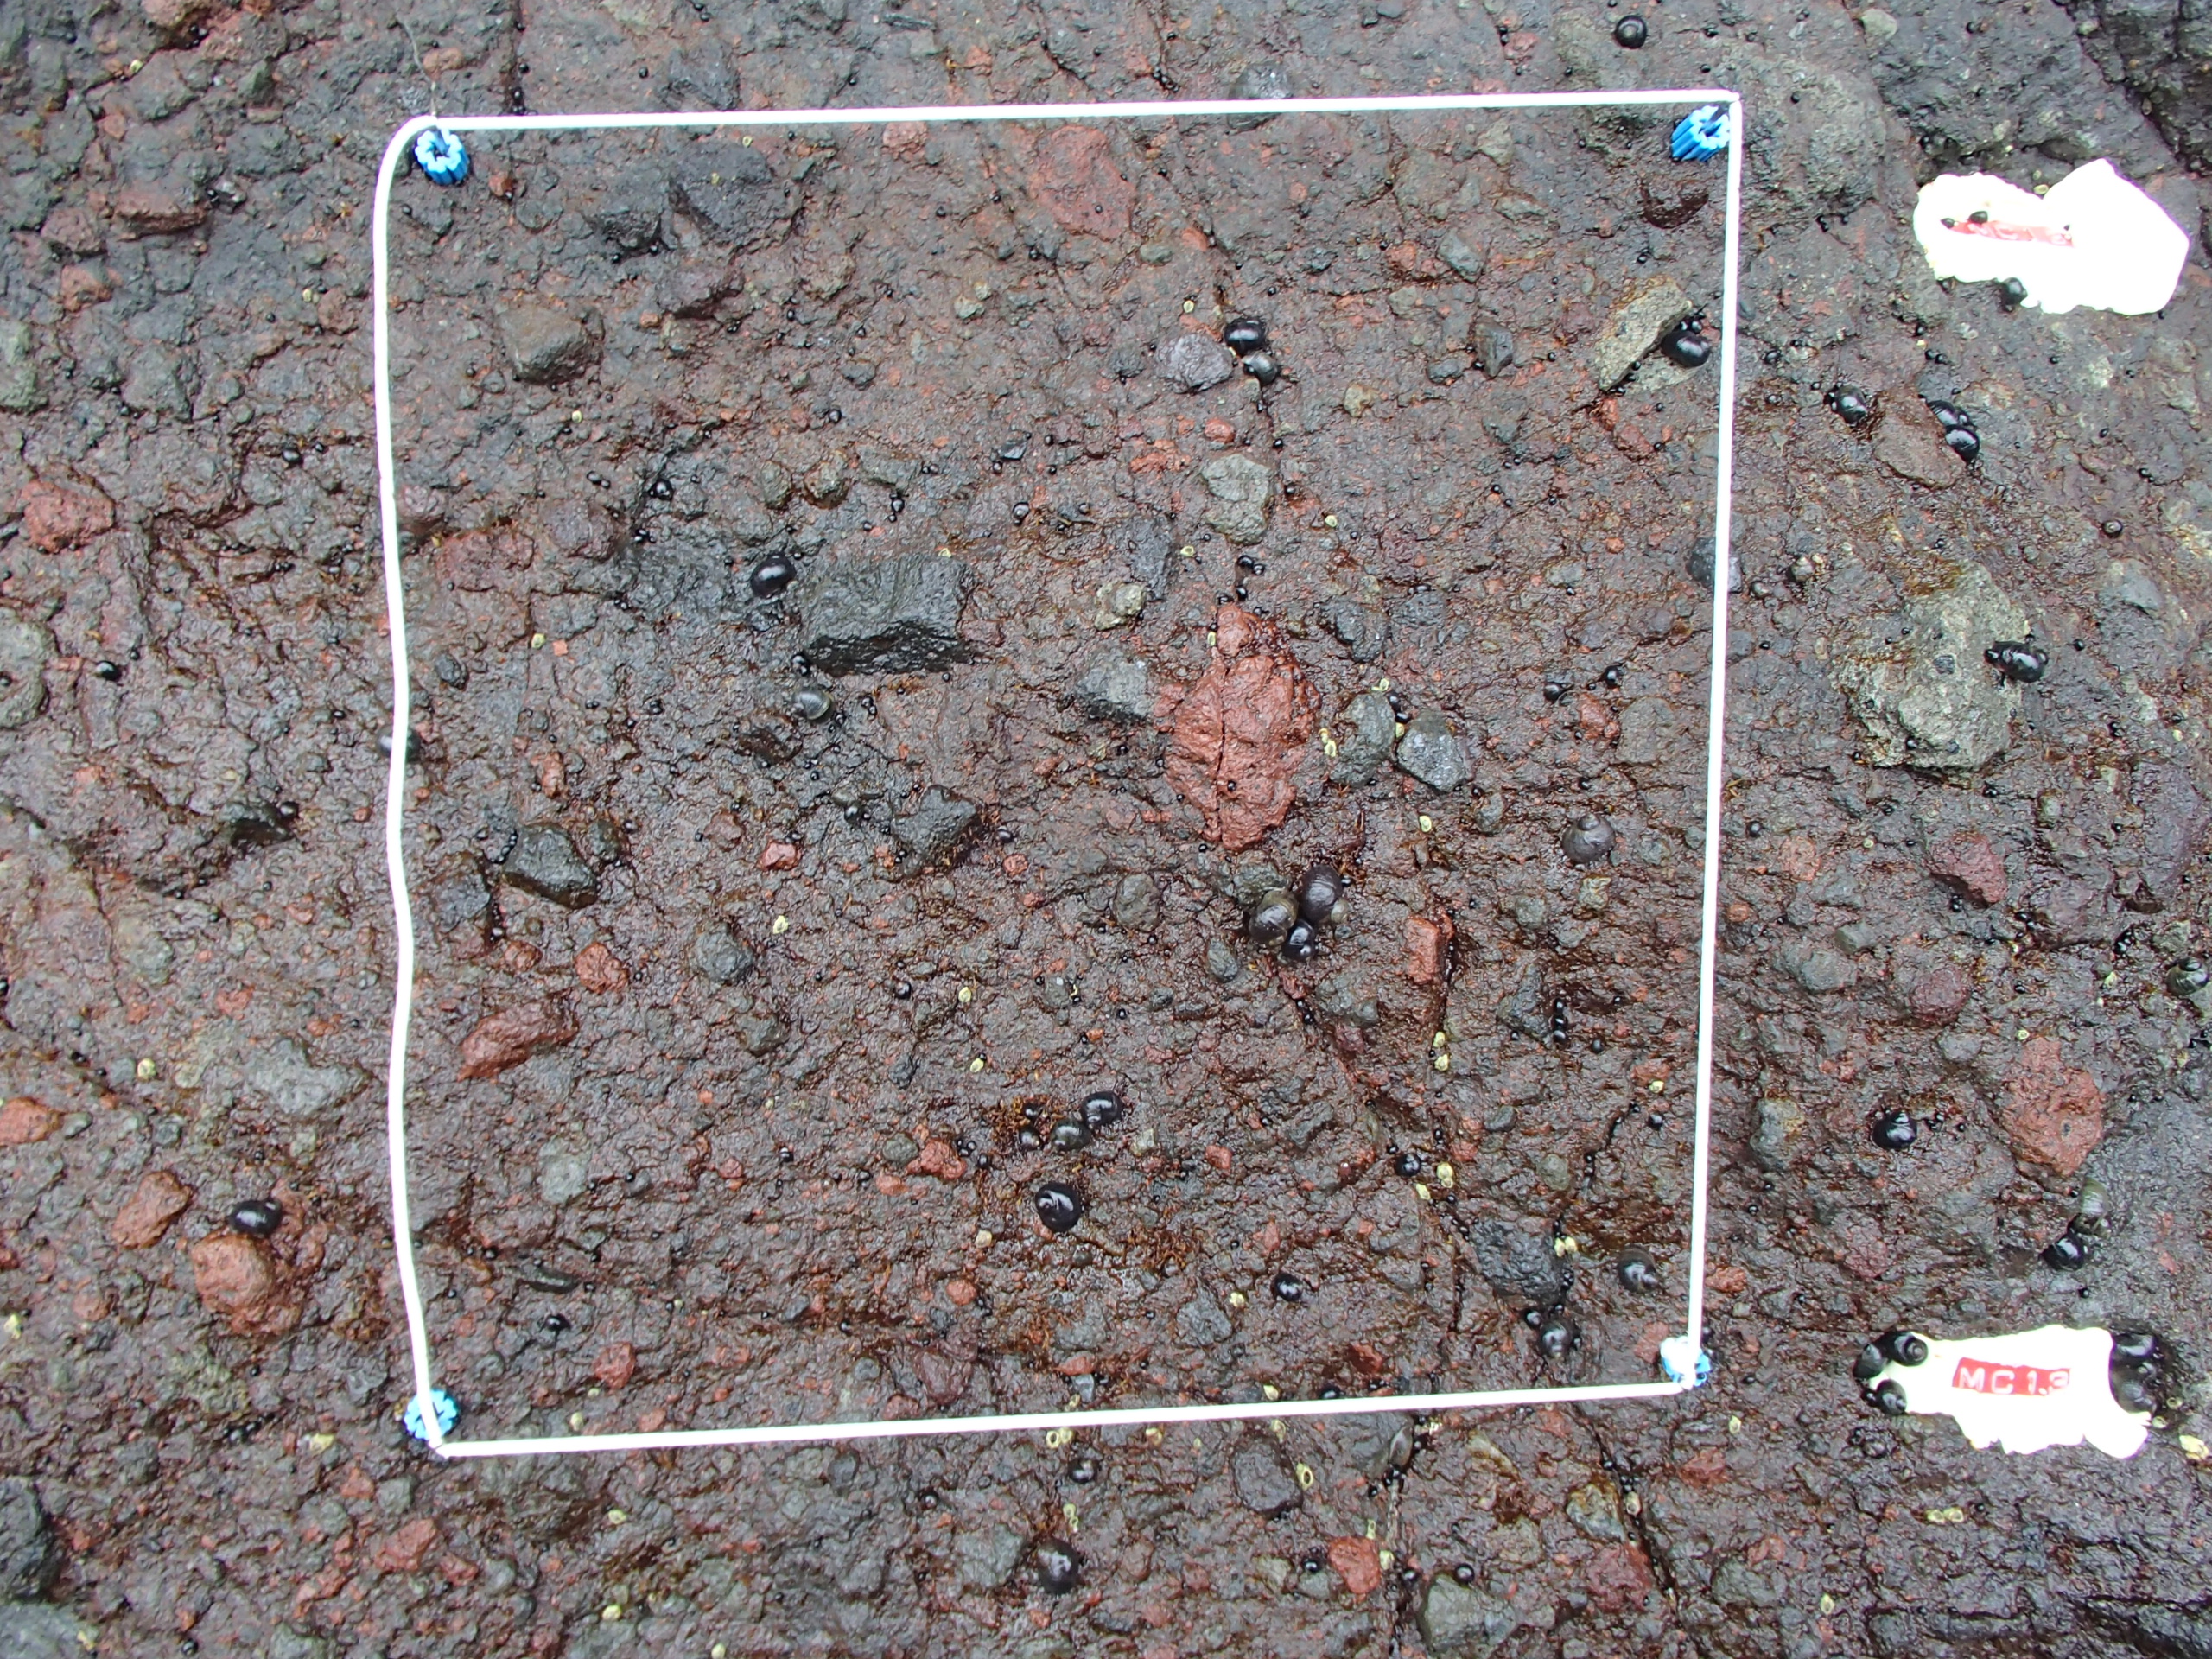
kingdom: Chromista
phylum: Ochrophyta
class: Phaeophyceae
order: Scytosiphonales
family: Scytosiphonaceae
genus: Analipus
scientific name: Analipus japonicus
